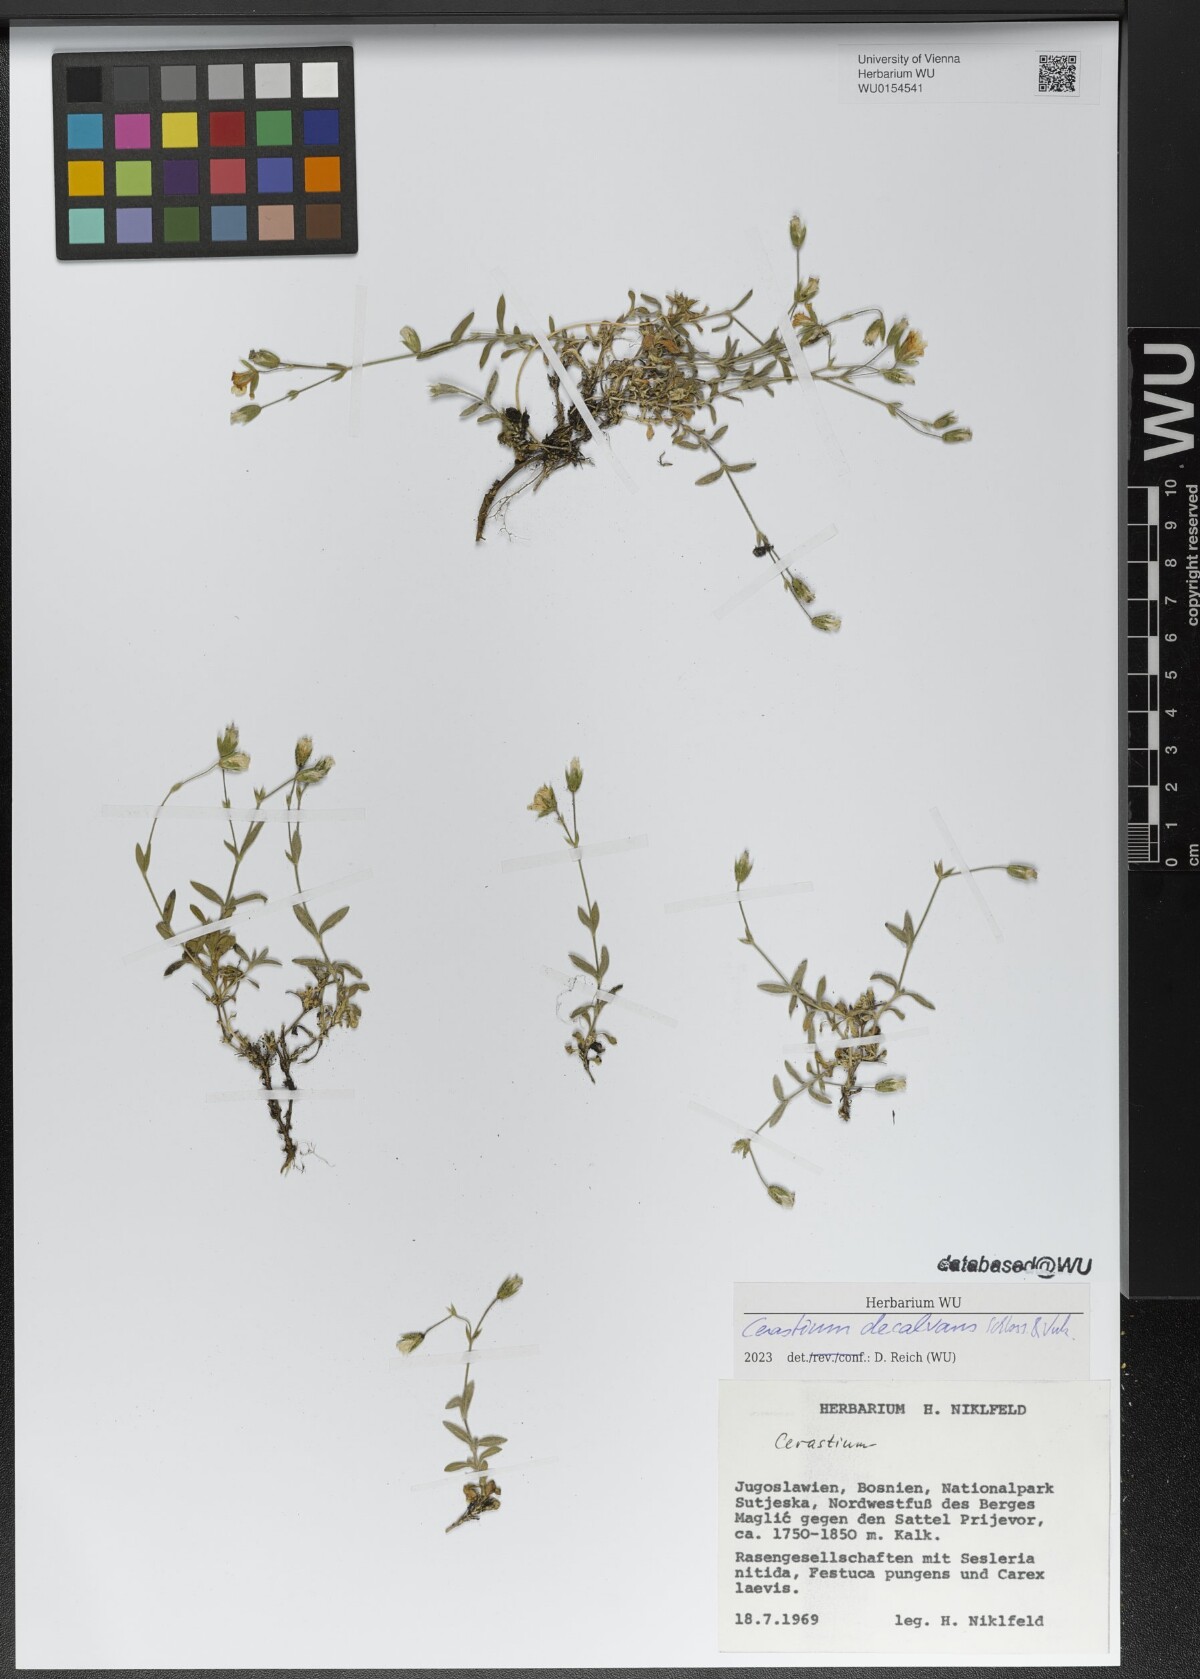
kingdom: Plantae
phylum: Tracheophyta
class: Magnoliopsida
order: Caryophyllales
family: Caryophyllaceae
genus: Cerastium
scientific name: Cerastium decalvans
